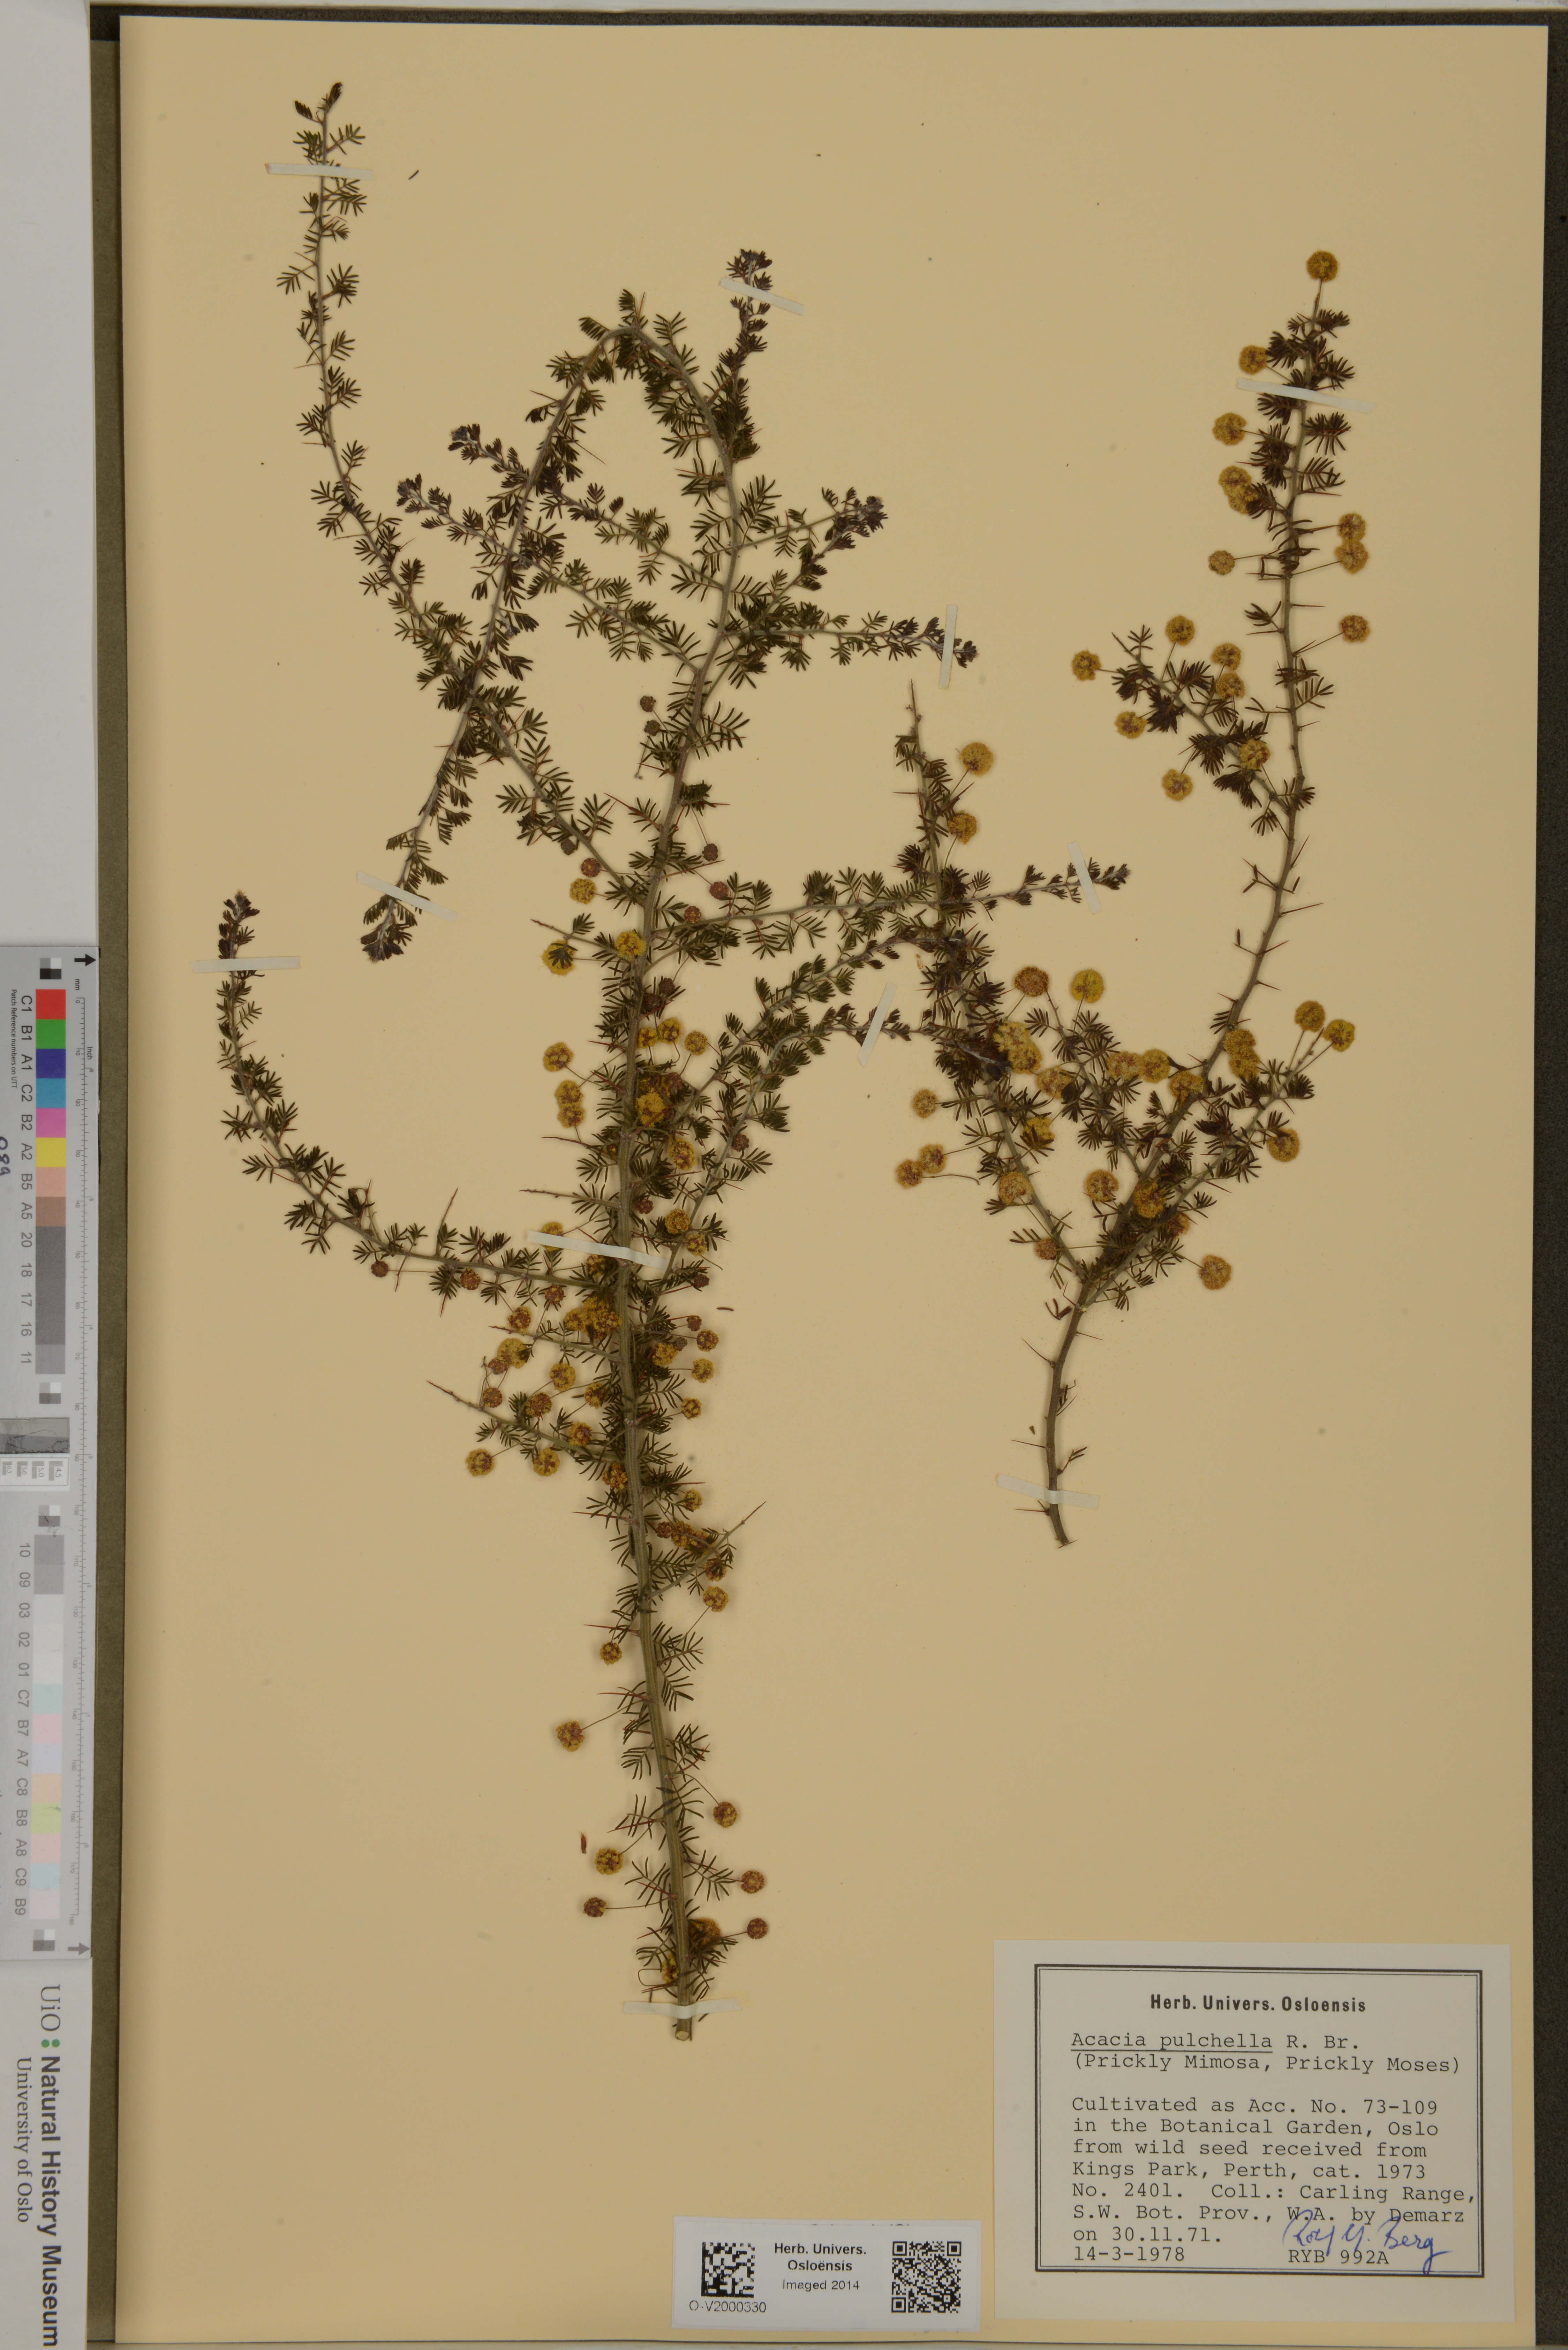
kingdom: Plantae
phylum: Tracheophyta
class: Magnoliopsida
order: Fabales
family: Fabaceae
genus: Acacia
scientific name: Acacia pulchella
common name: Prickly moses
